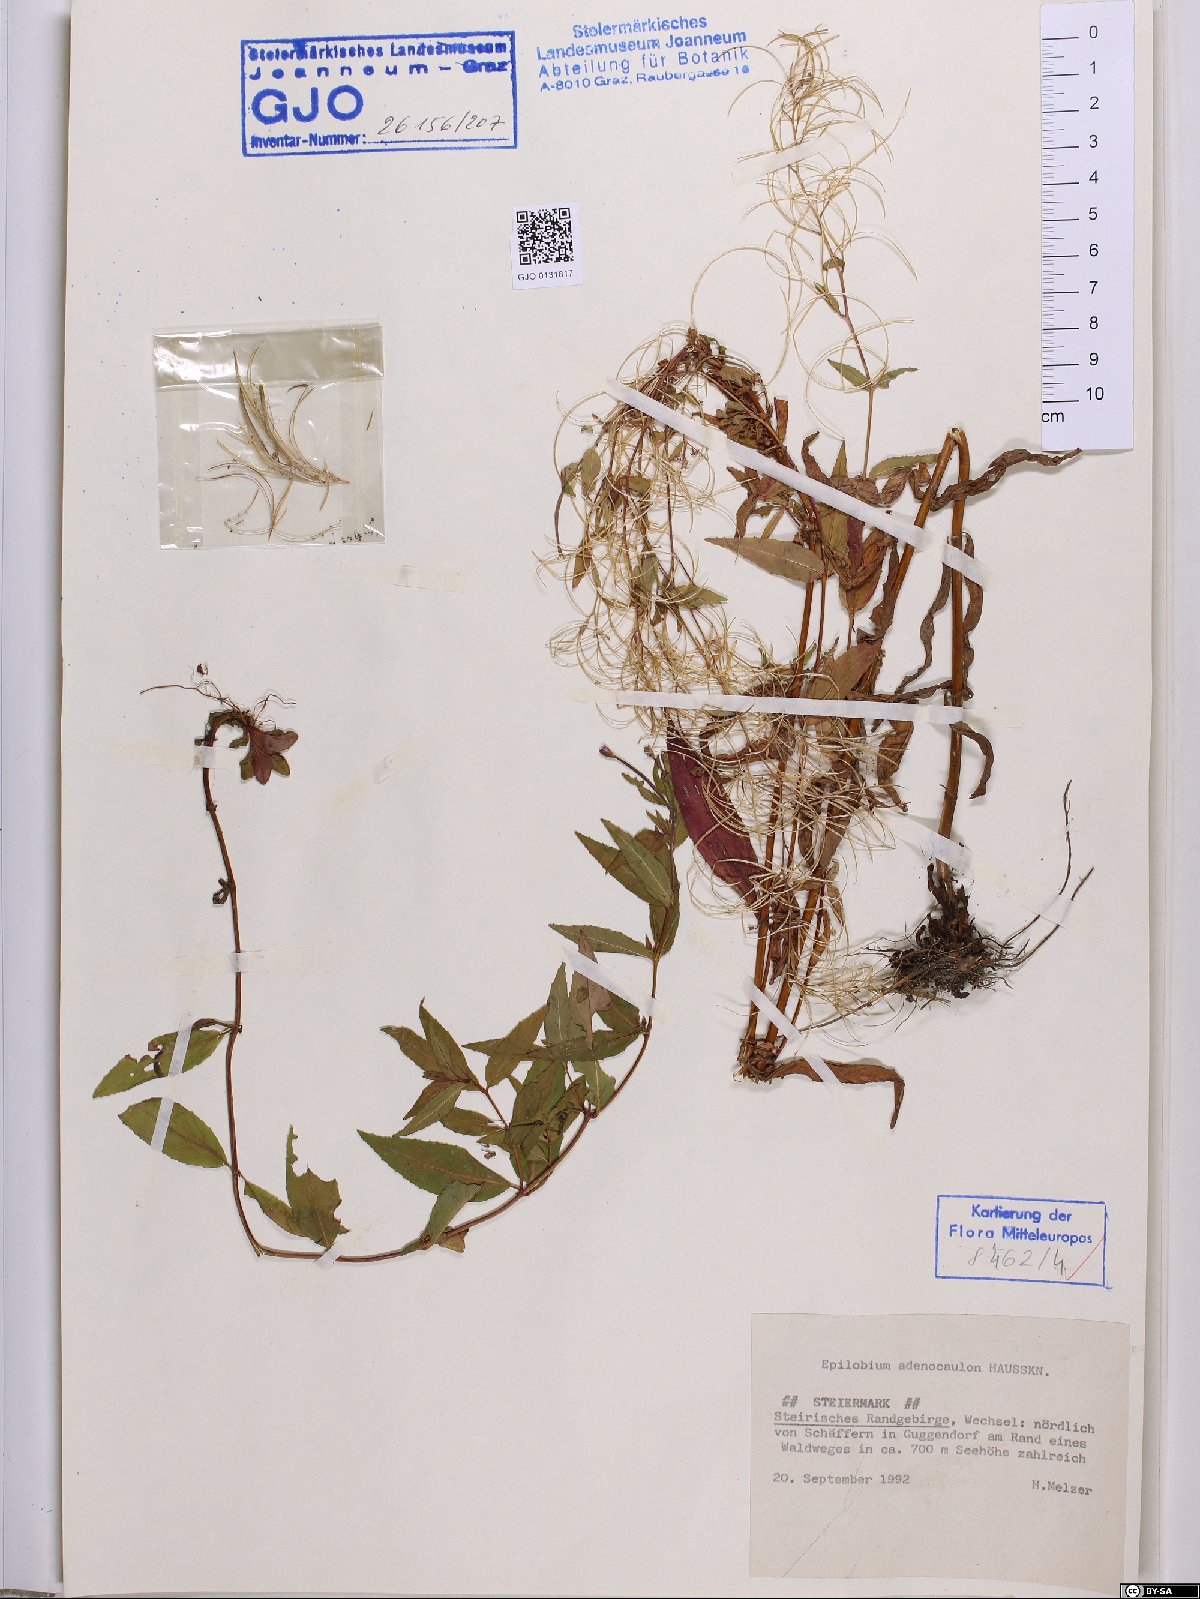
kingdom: Plantae
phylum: Tracheophyta
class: Magnoliopsida
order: Myrtales
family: Onagraceae
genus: Epilobium
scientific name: Epilobium ciliatum
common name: American willowherb
